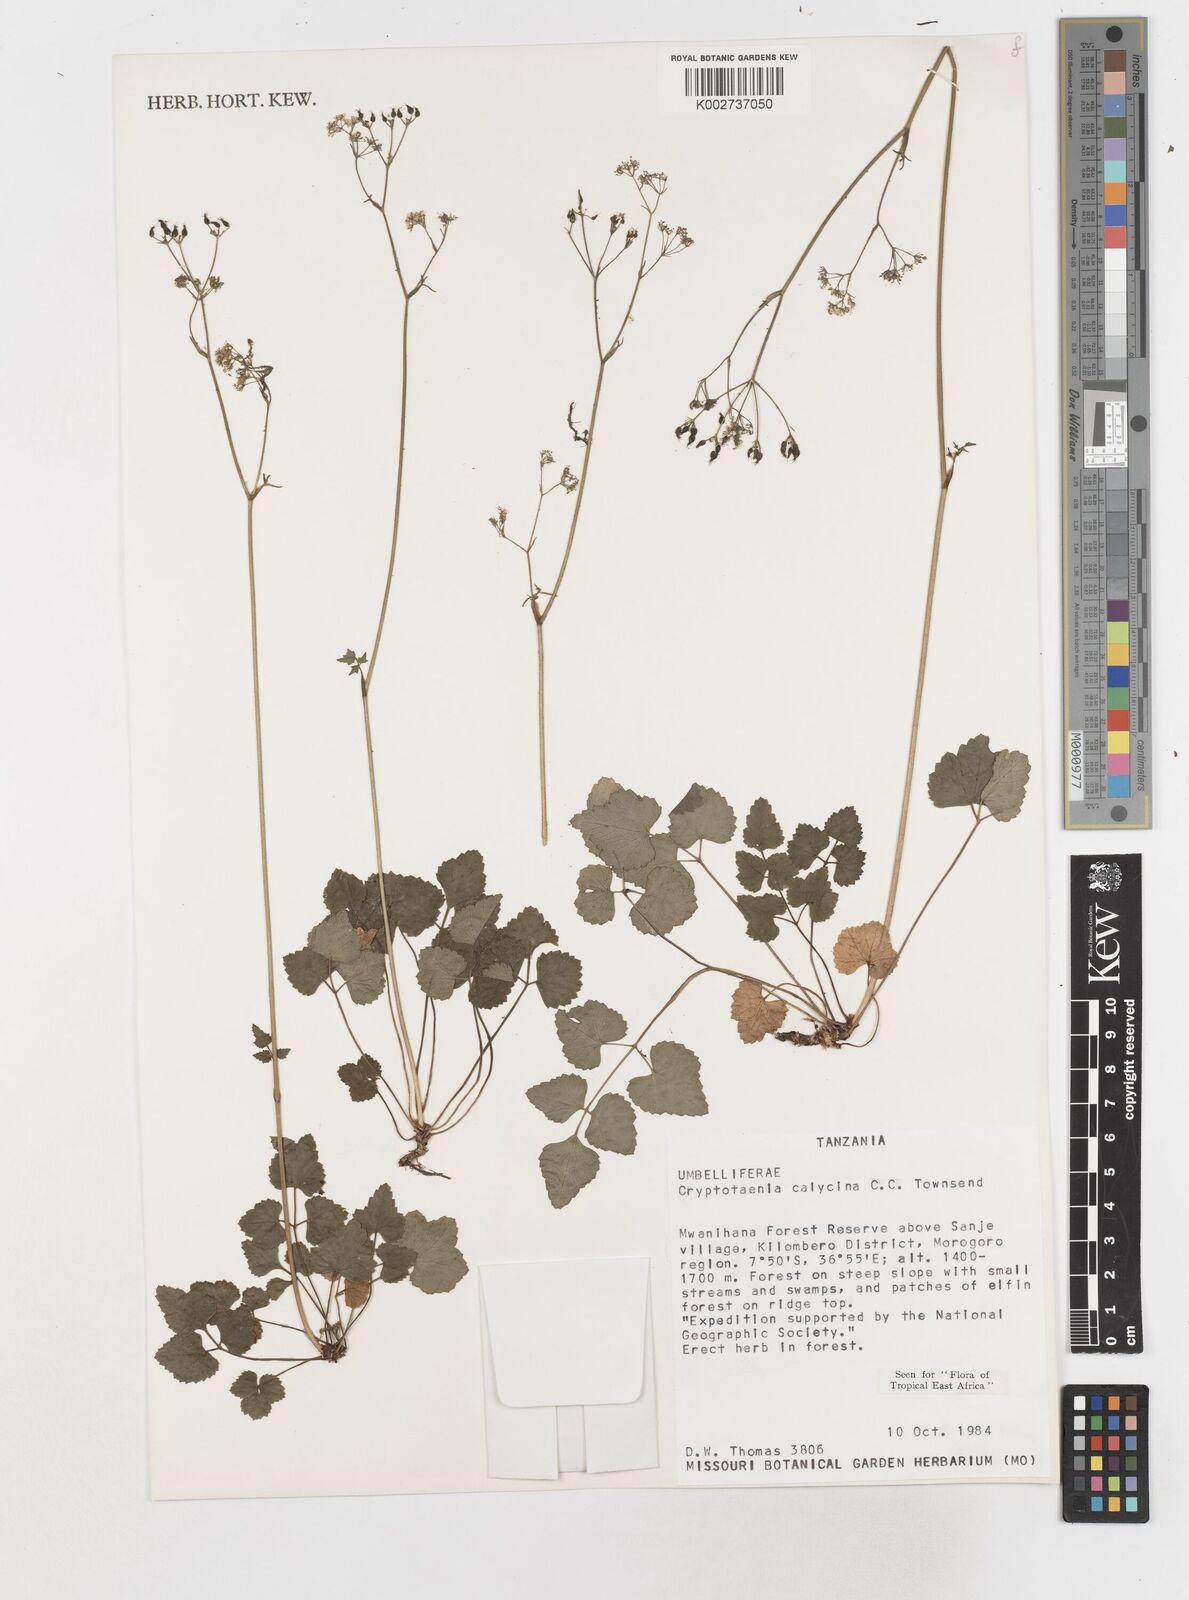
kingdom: Plantae
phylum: Tracheophyta
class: Magnoliopsida
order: Apiales
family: Apiaceae
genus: Cryptotaenia
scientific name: Cryptotaenia calycina
